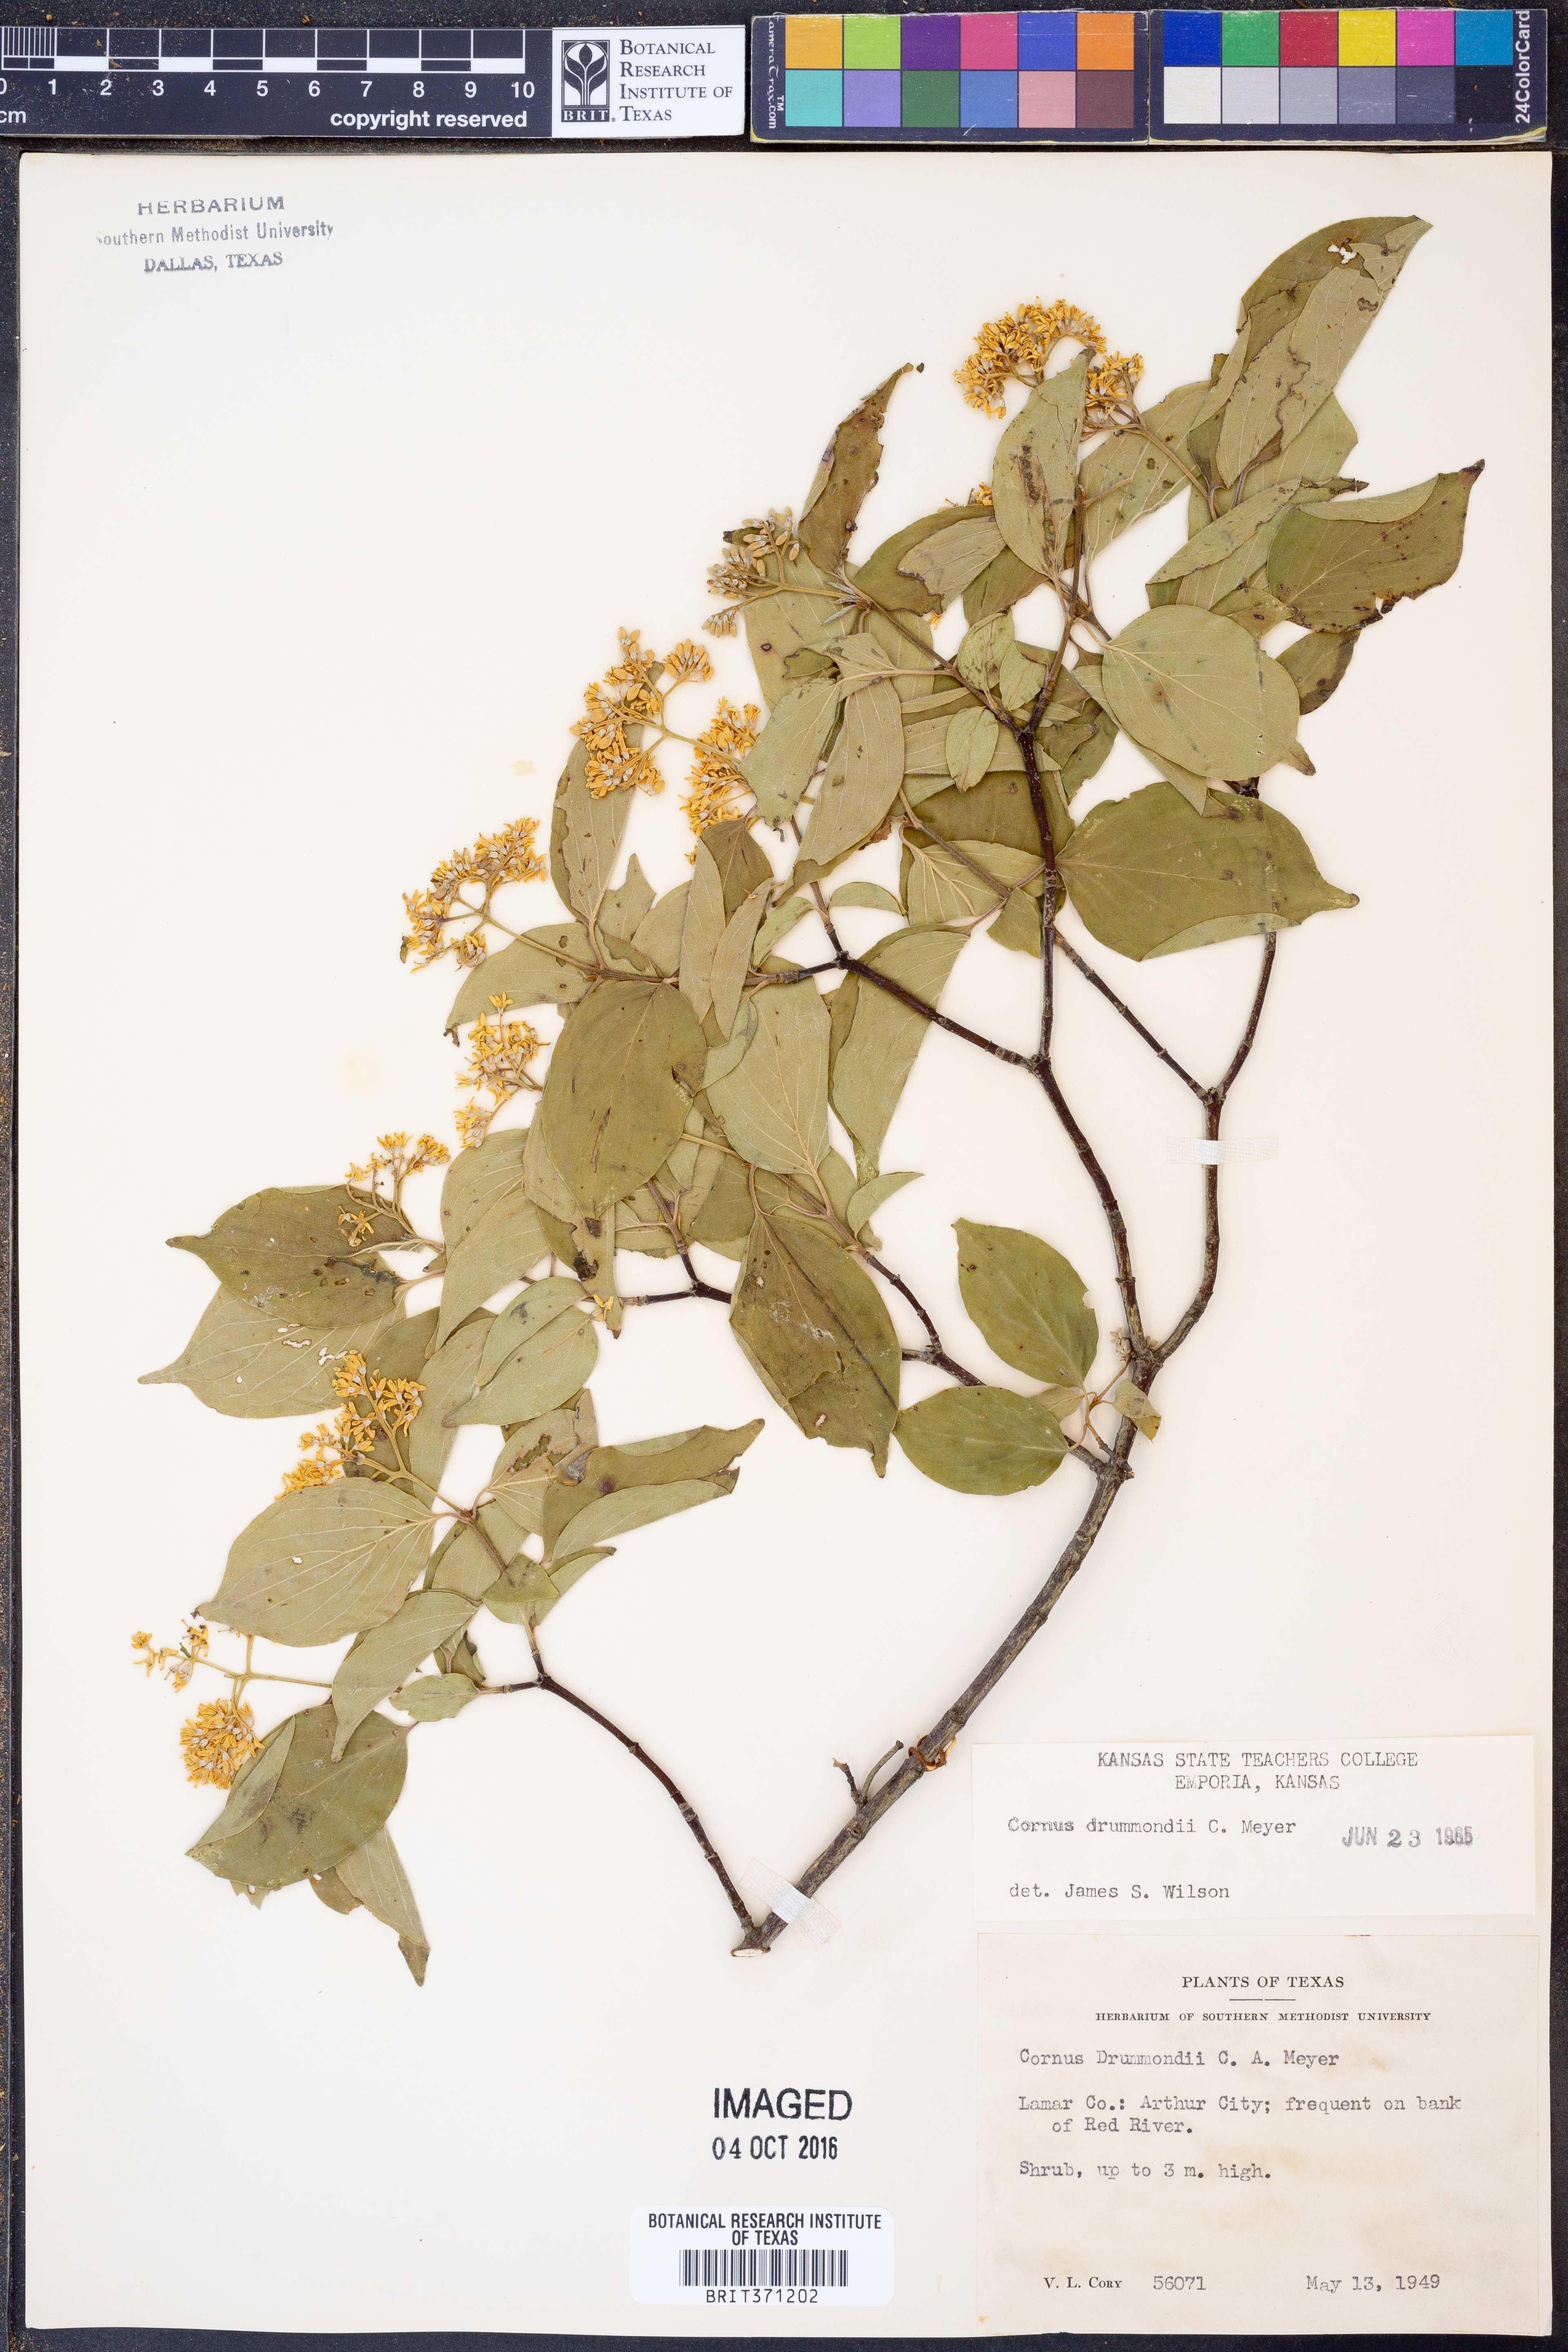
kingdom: Plantae
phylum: Tracheophyta
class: Magnoliopsida
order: Cornales
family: Cornaceae
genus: Cornus
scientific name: Cornus drummondii
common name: Rough-leaf dogwood
